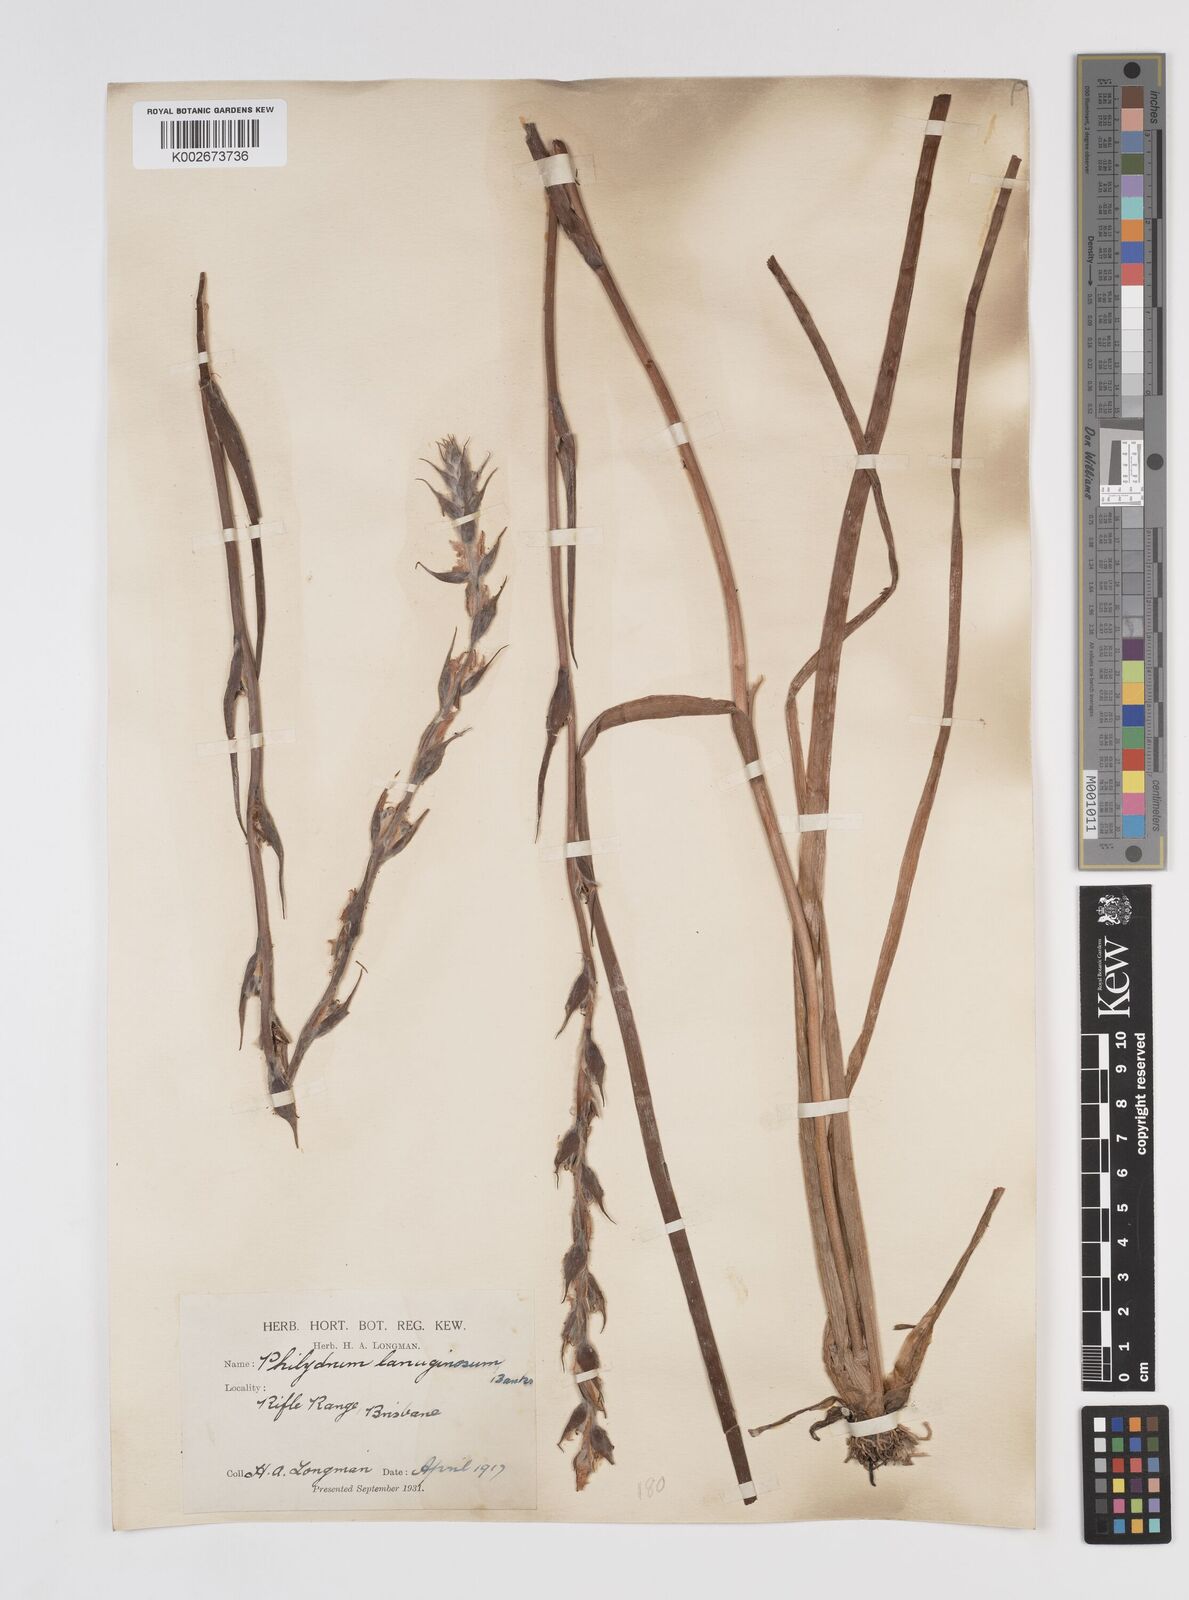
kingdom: Plantae
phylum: Tracheophyta
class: Liliopsida
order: Commelinales
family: Philydraceae
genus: Philydrum
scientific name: Philydrum lanuginosum
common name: Woolly frog's mouth
